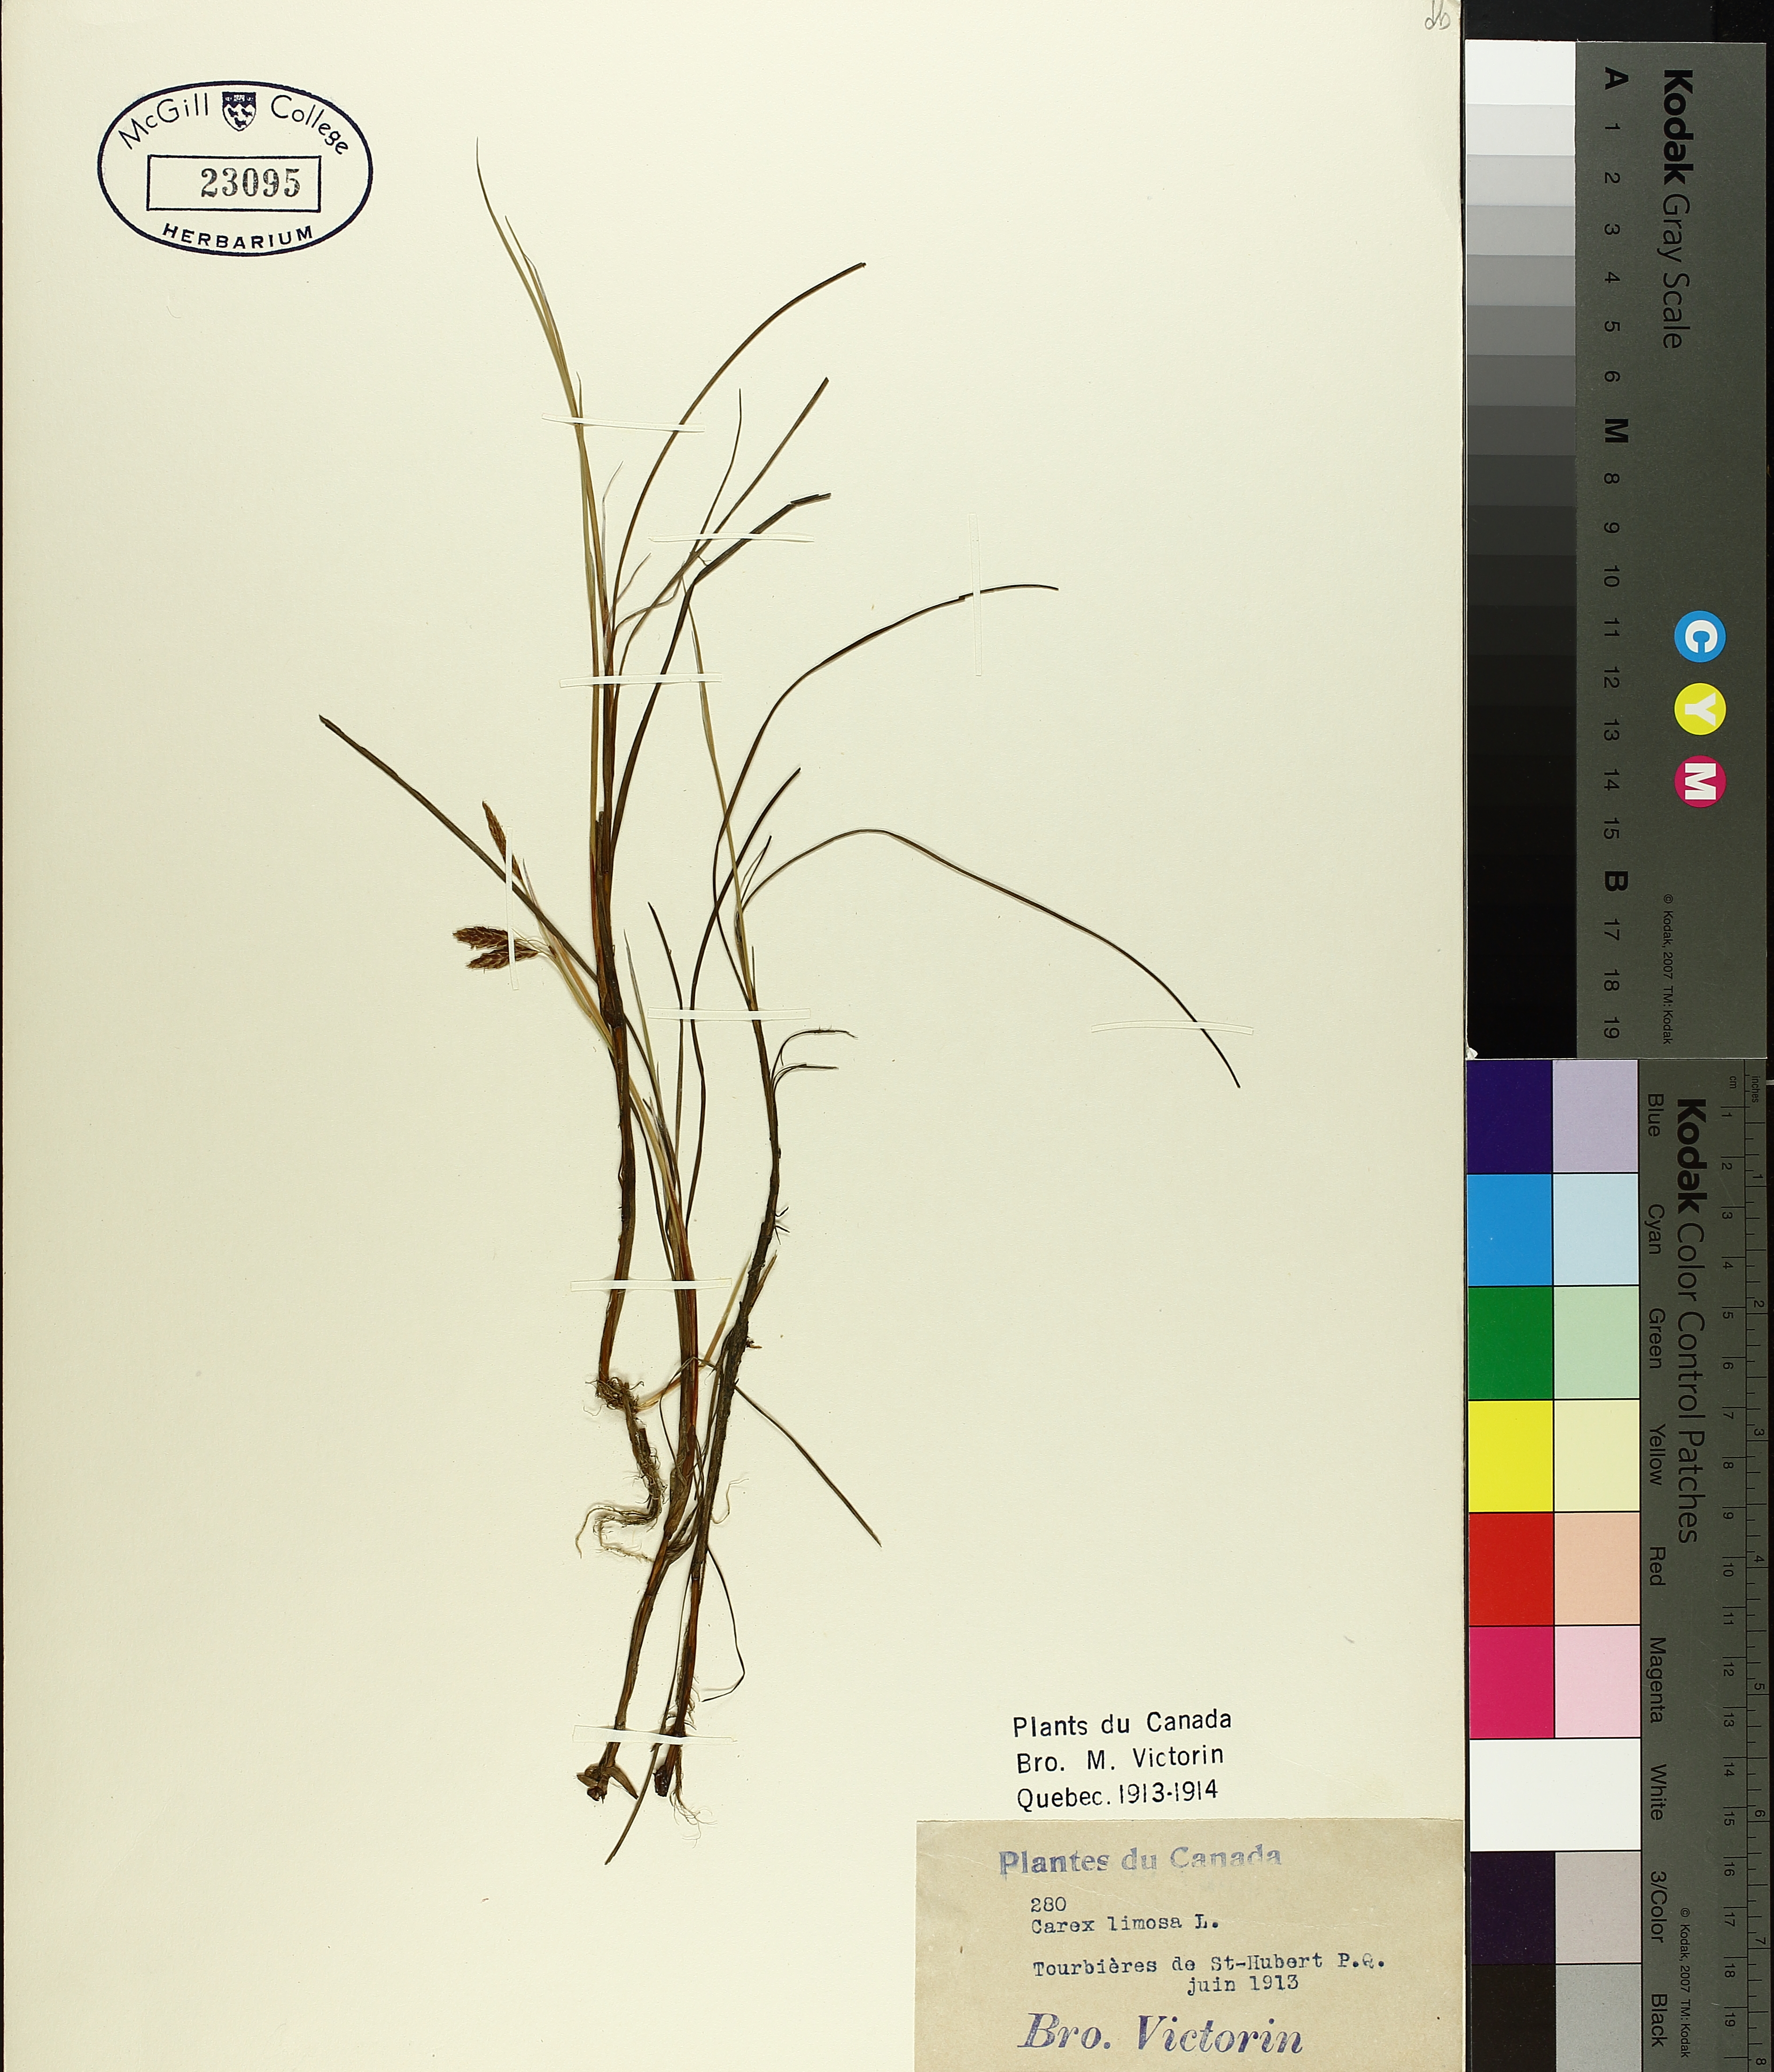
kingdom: Plantae
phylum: Tracheophyta
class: Liliopsida
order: Poales
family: Cyperaceae
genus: Carex
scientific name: Carex limosa
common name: Bog sedge
